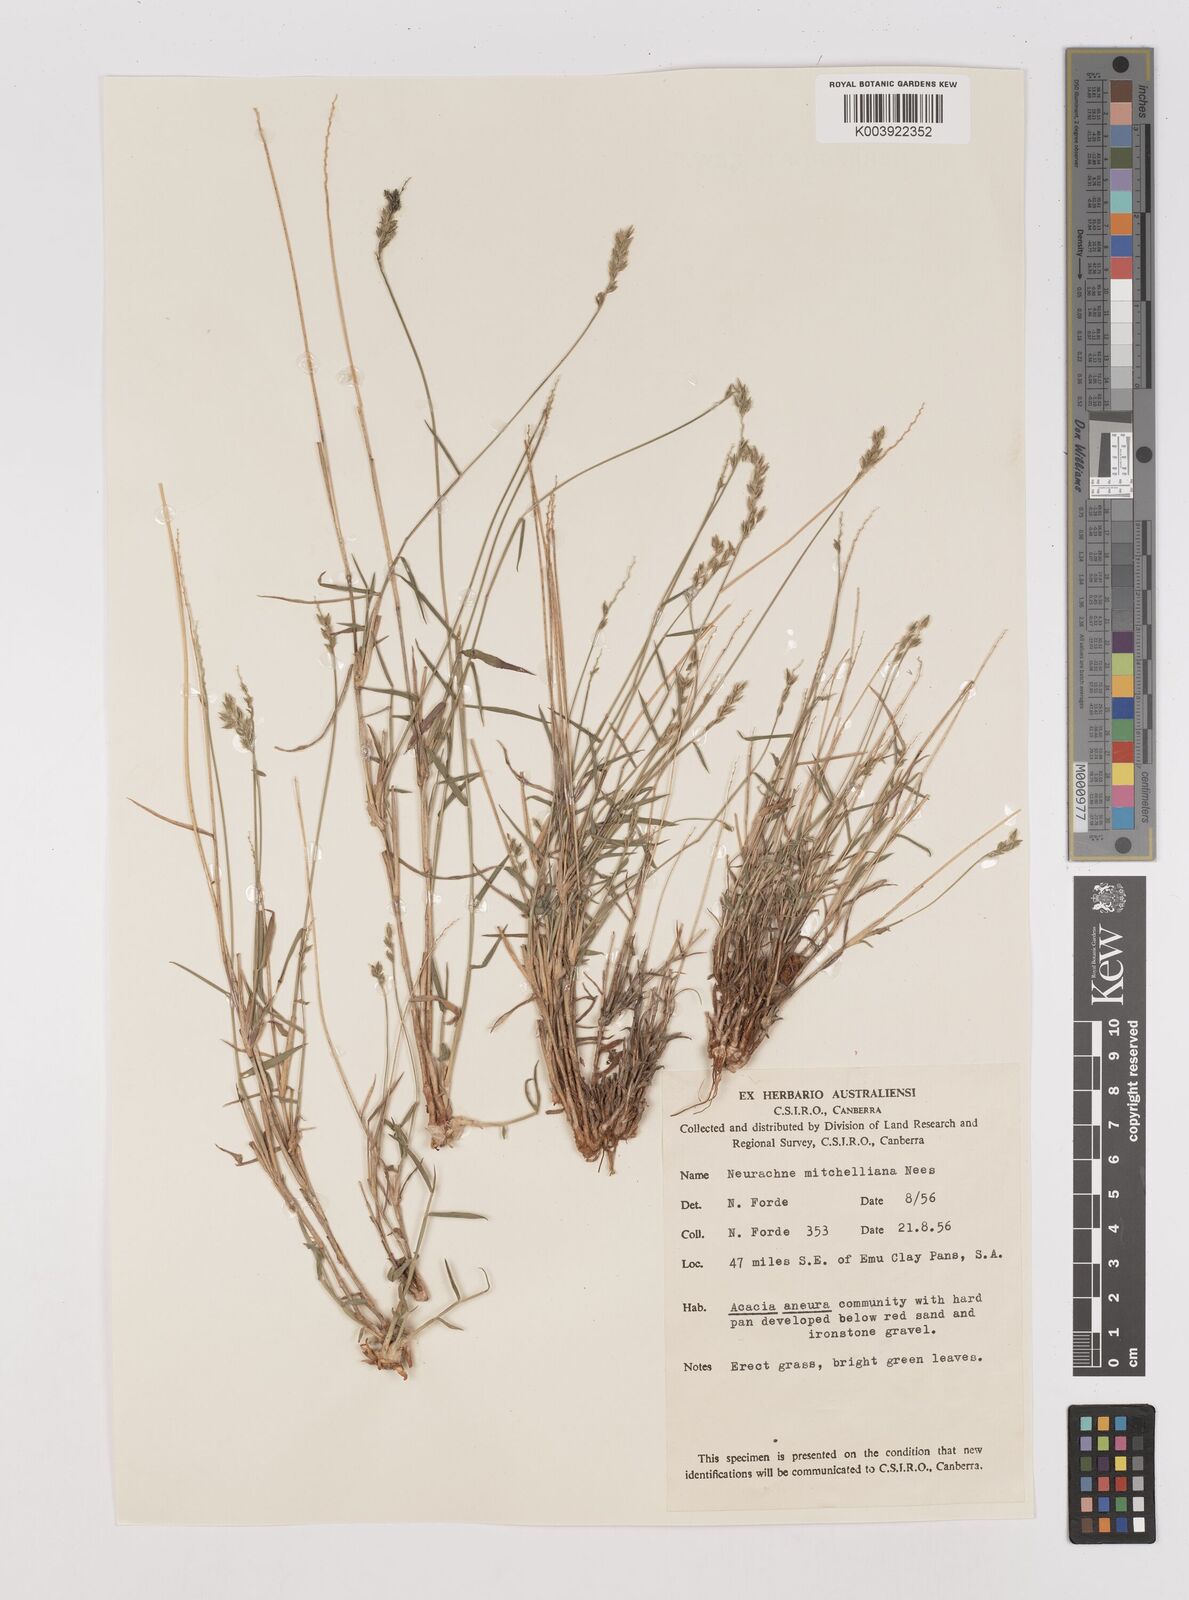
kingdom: Plantae
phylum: Tracheophyta
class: Liliopsida
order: Poales
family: Poaceae
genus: Thyridolepis
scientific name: Thyridolepis mitchelliana
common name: Rock tassel grass
